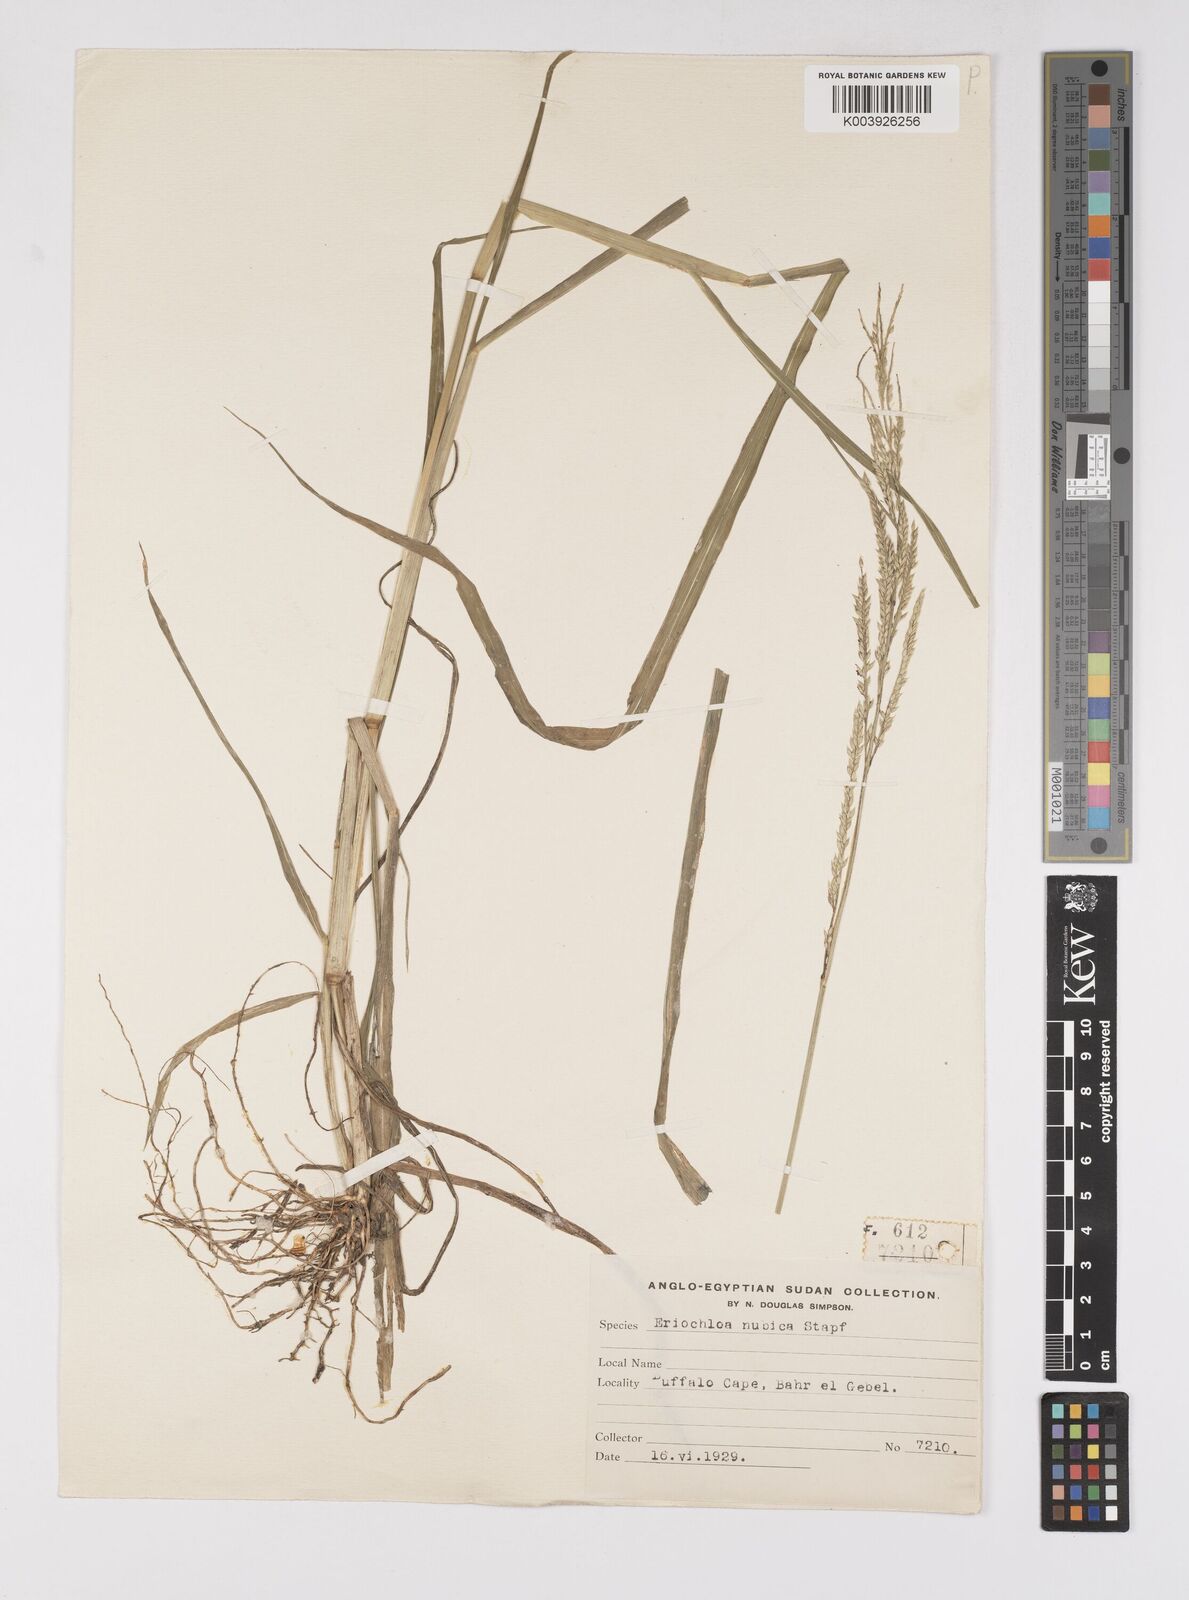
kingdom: Plantae
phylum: Tracheophyta
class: Liliopsida
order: Poales
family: Poaceae
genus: Eriochloa
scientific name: Eriochloa barbatus
